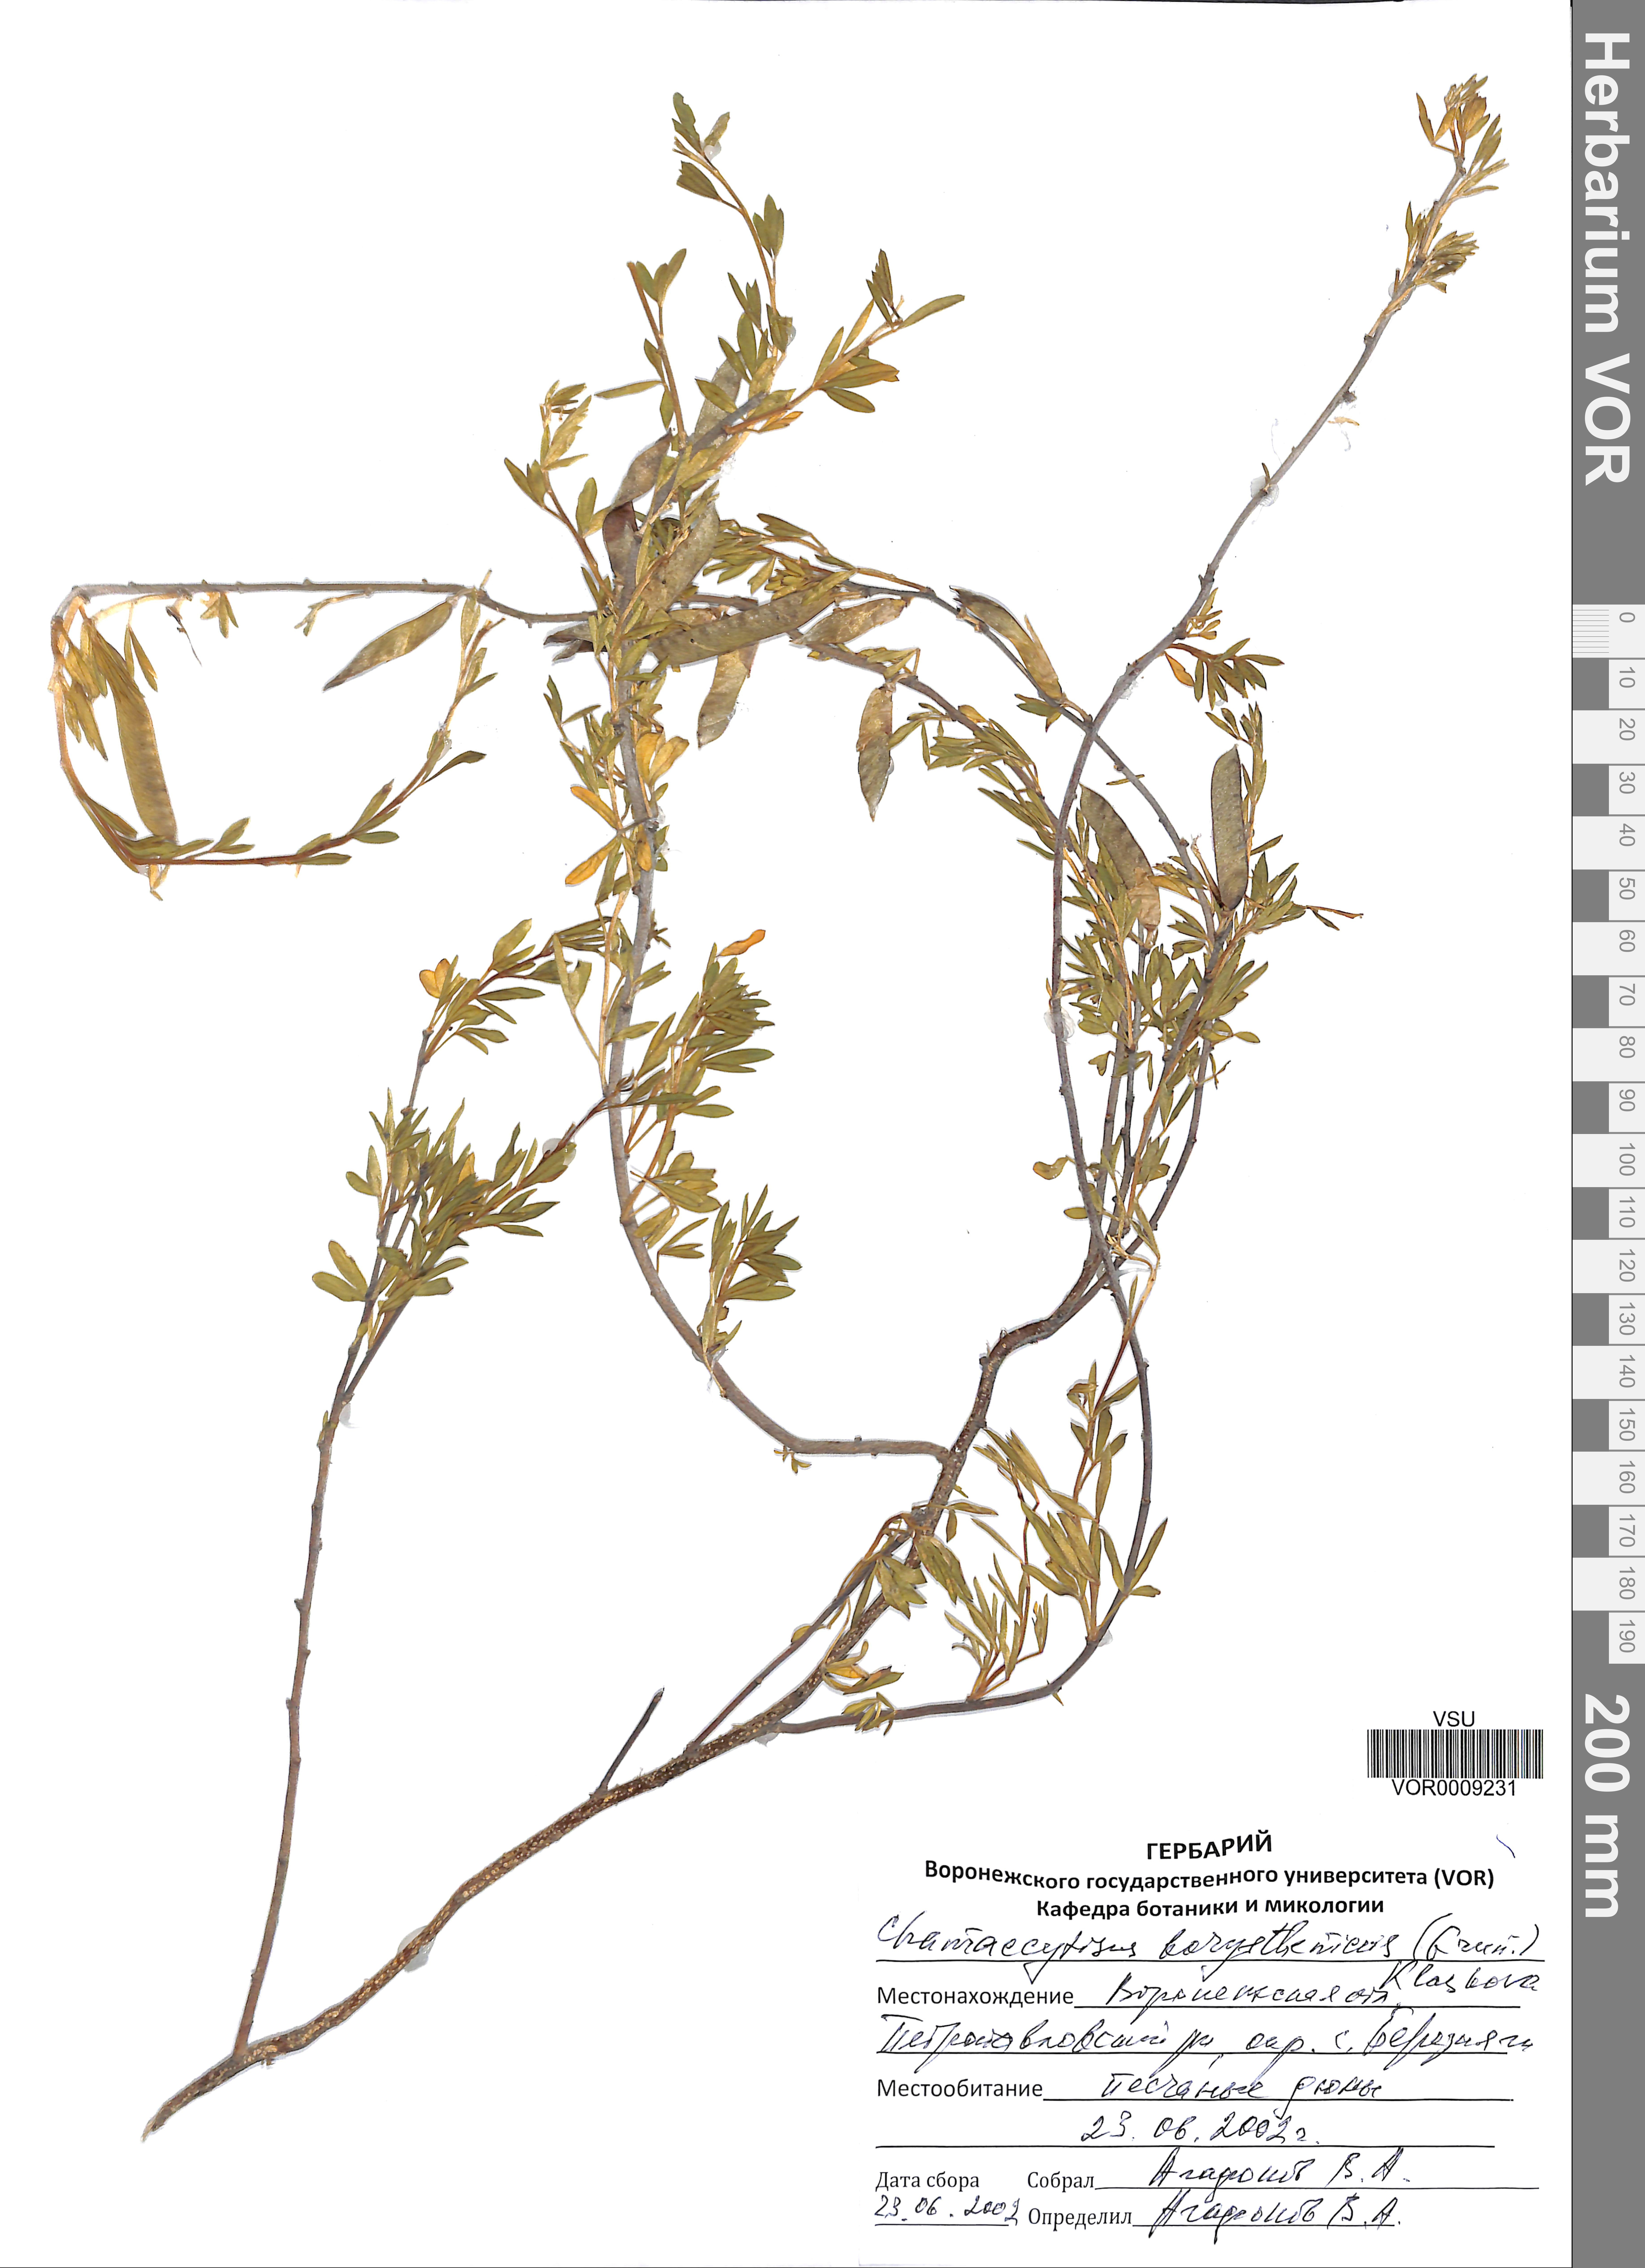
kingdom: Plantae
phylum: Tracheophyta
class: Magnoliopsida
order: Fabales
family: Fabaceae
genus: Chamaecytisus
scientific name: Chamaecytisus borysthenicus
